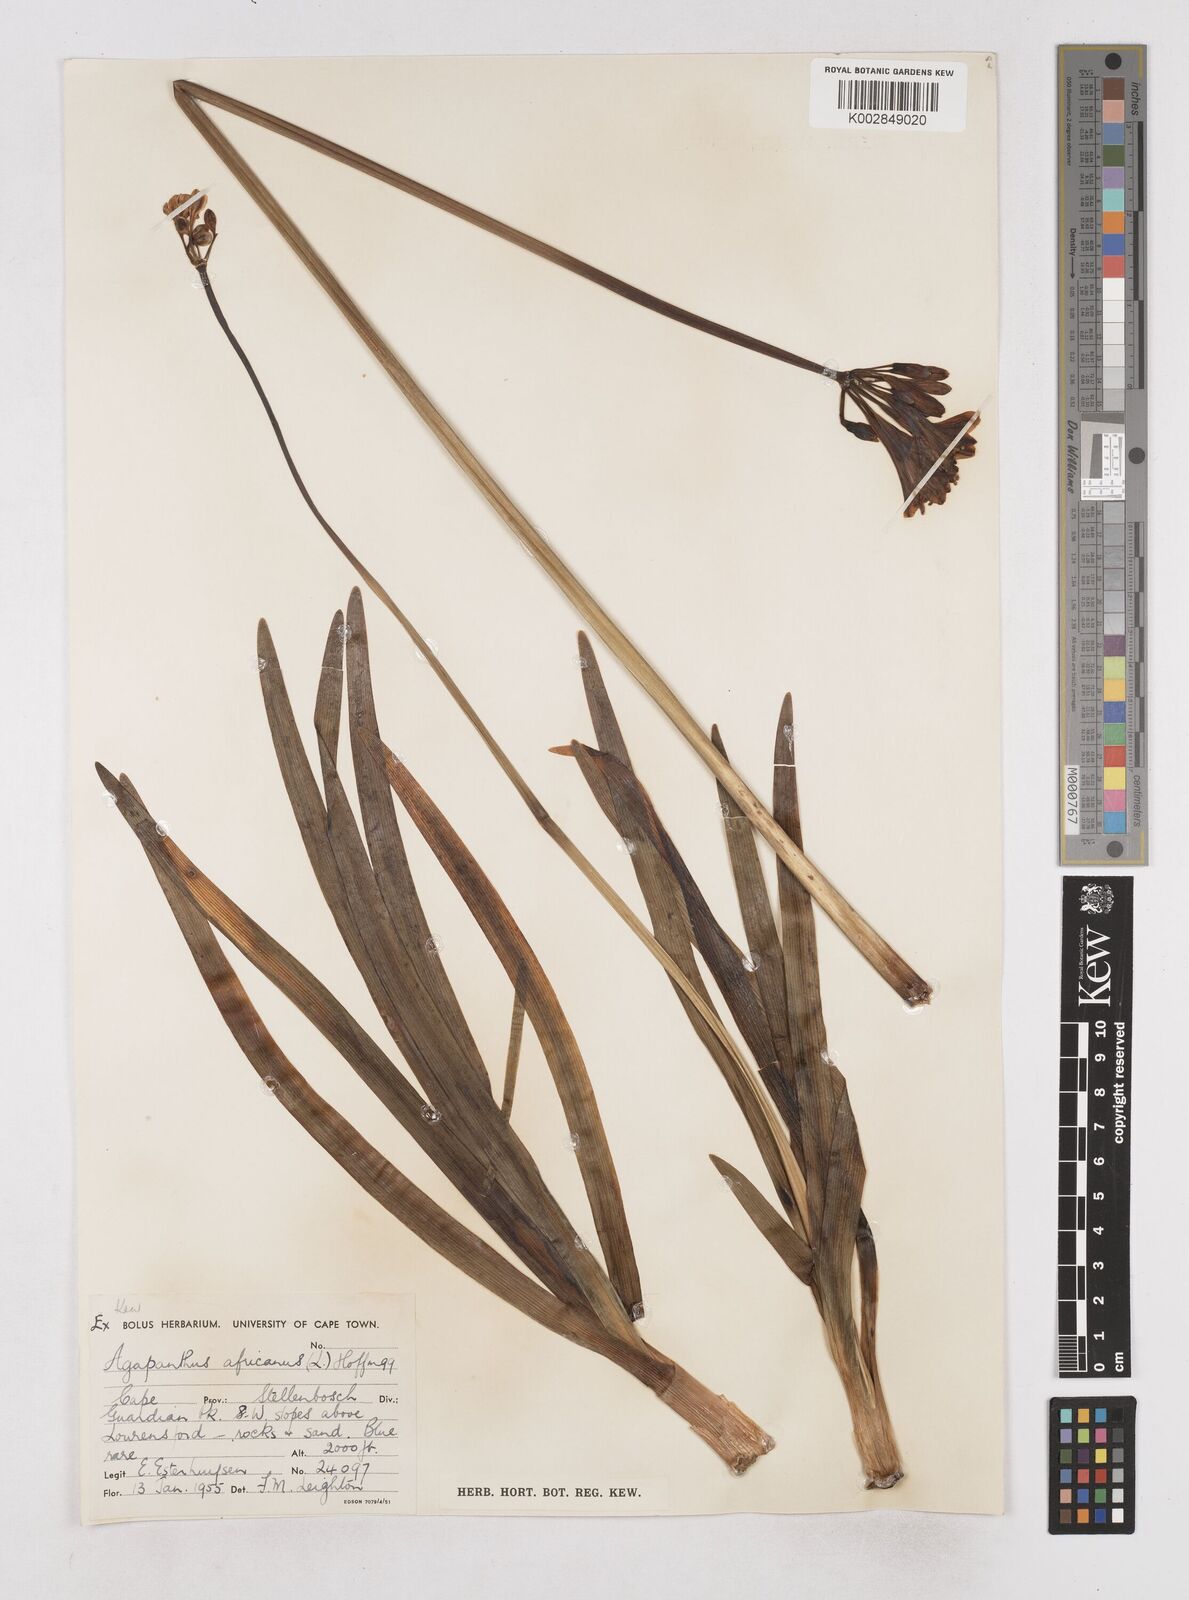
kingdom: Plantae
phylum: Tracheophyta
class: Liliopsida
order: Asparagales
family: Amaryllidaceae
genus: Agapanthus
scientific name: Agapanthus africanus
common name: Lily-of-the-nile
